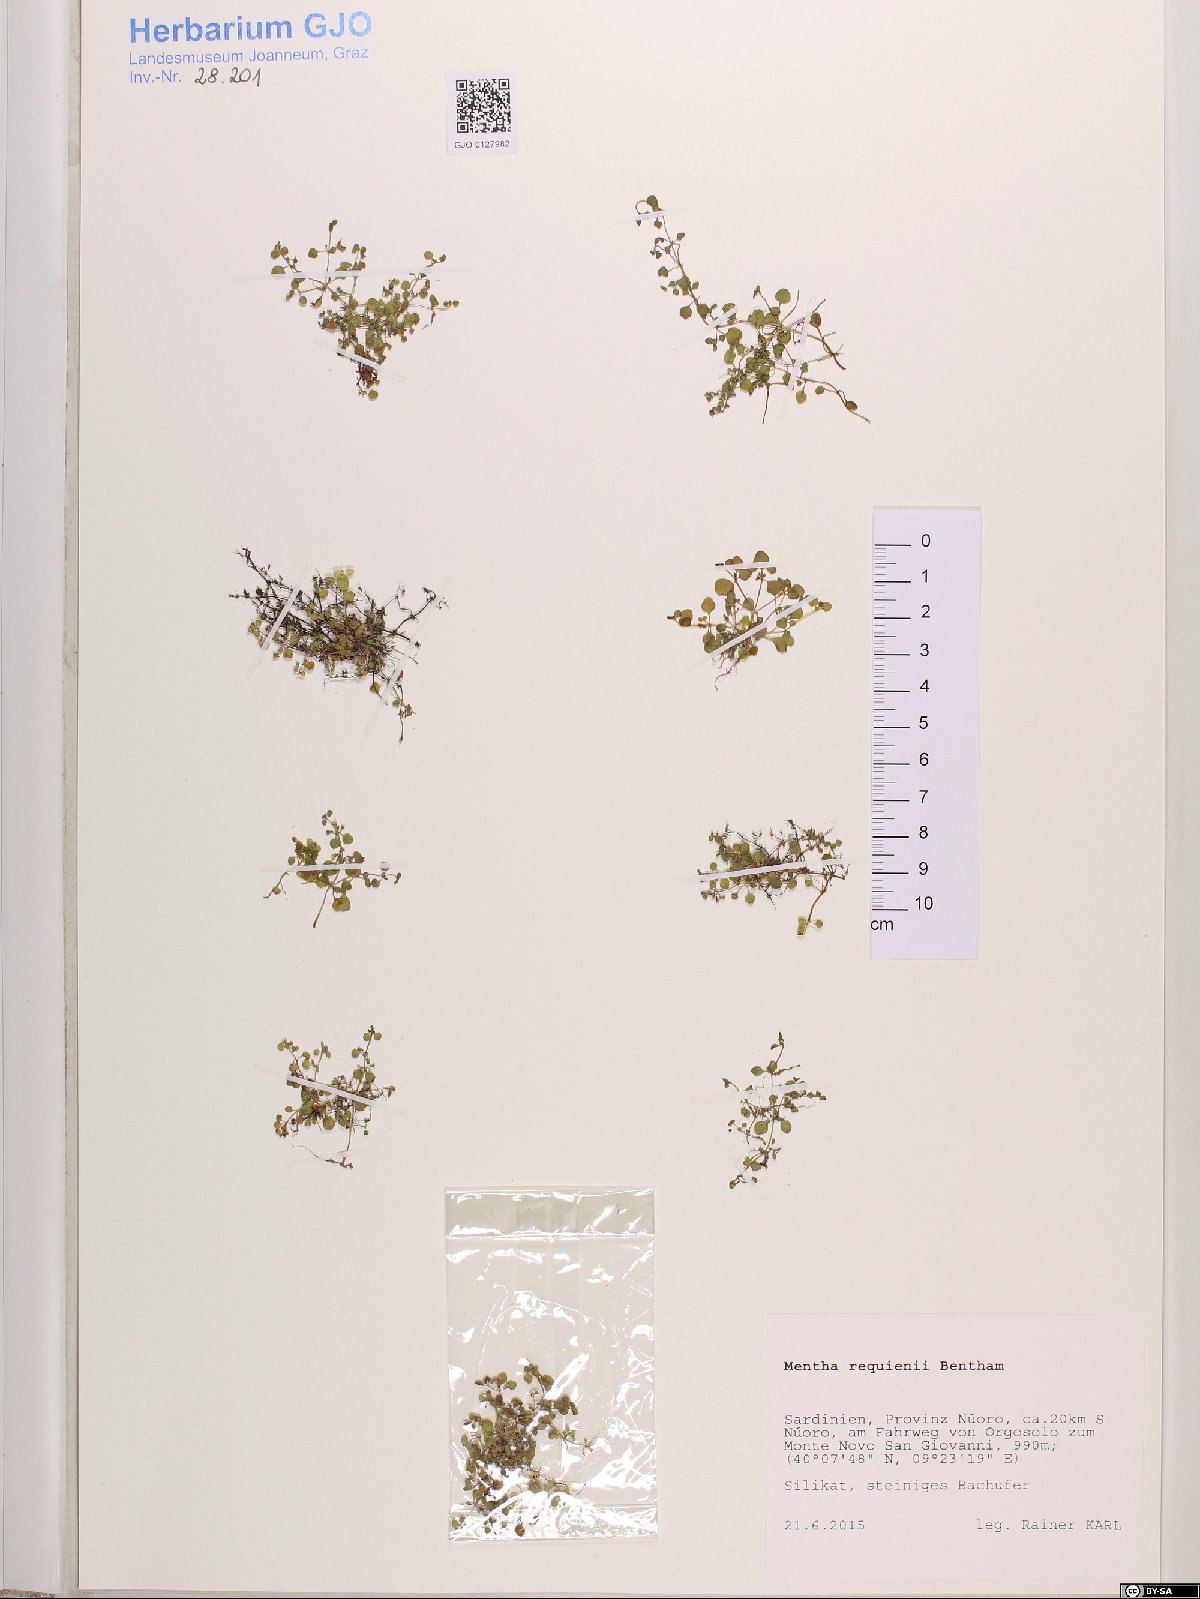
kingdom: Plantae
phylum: Tracheophyta
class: Magnoliopsida
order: Lamiales
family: Lamiaceae
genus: Mentha
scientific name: Mentha requienii
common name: Corsican mint
